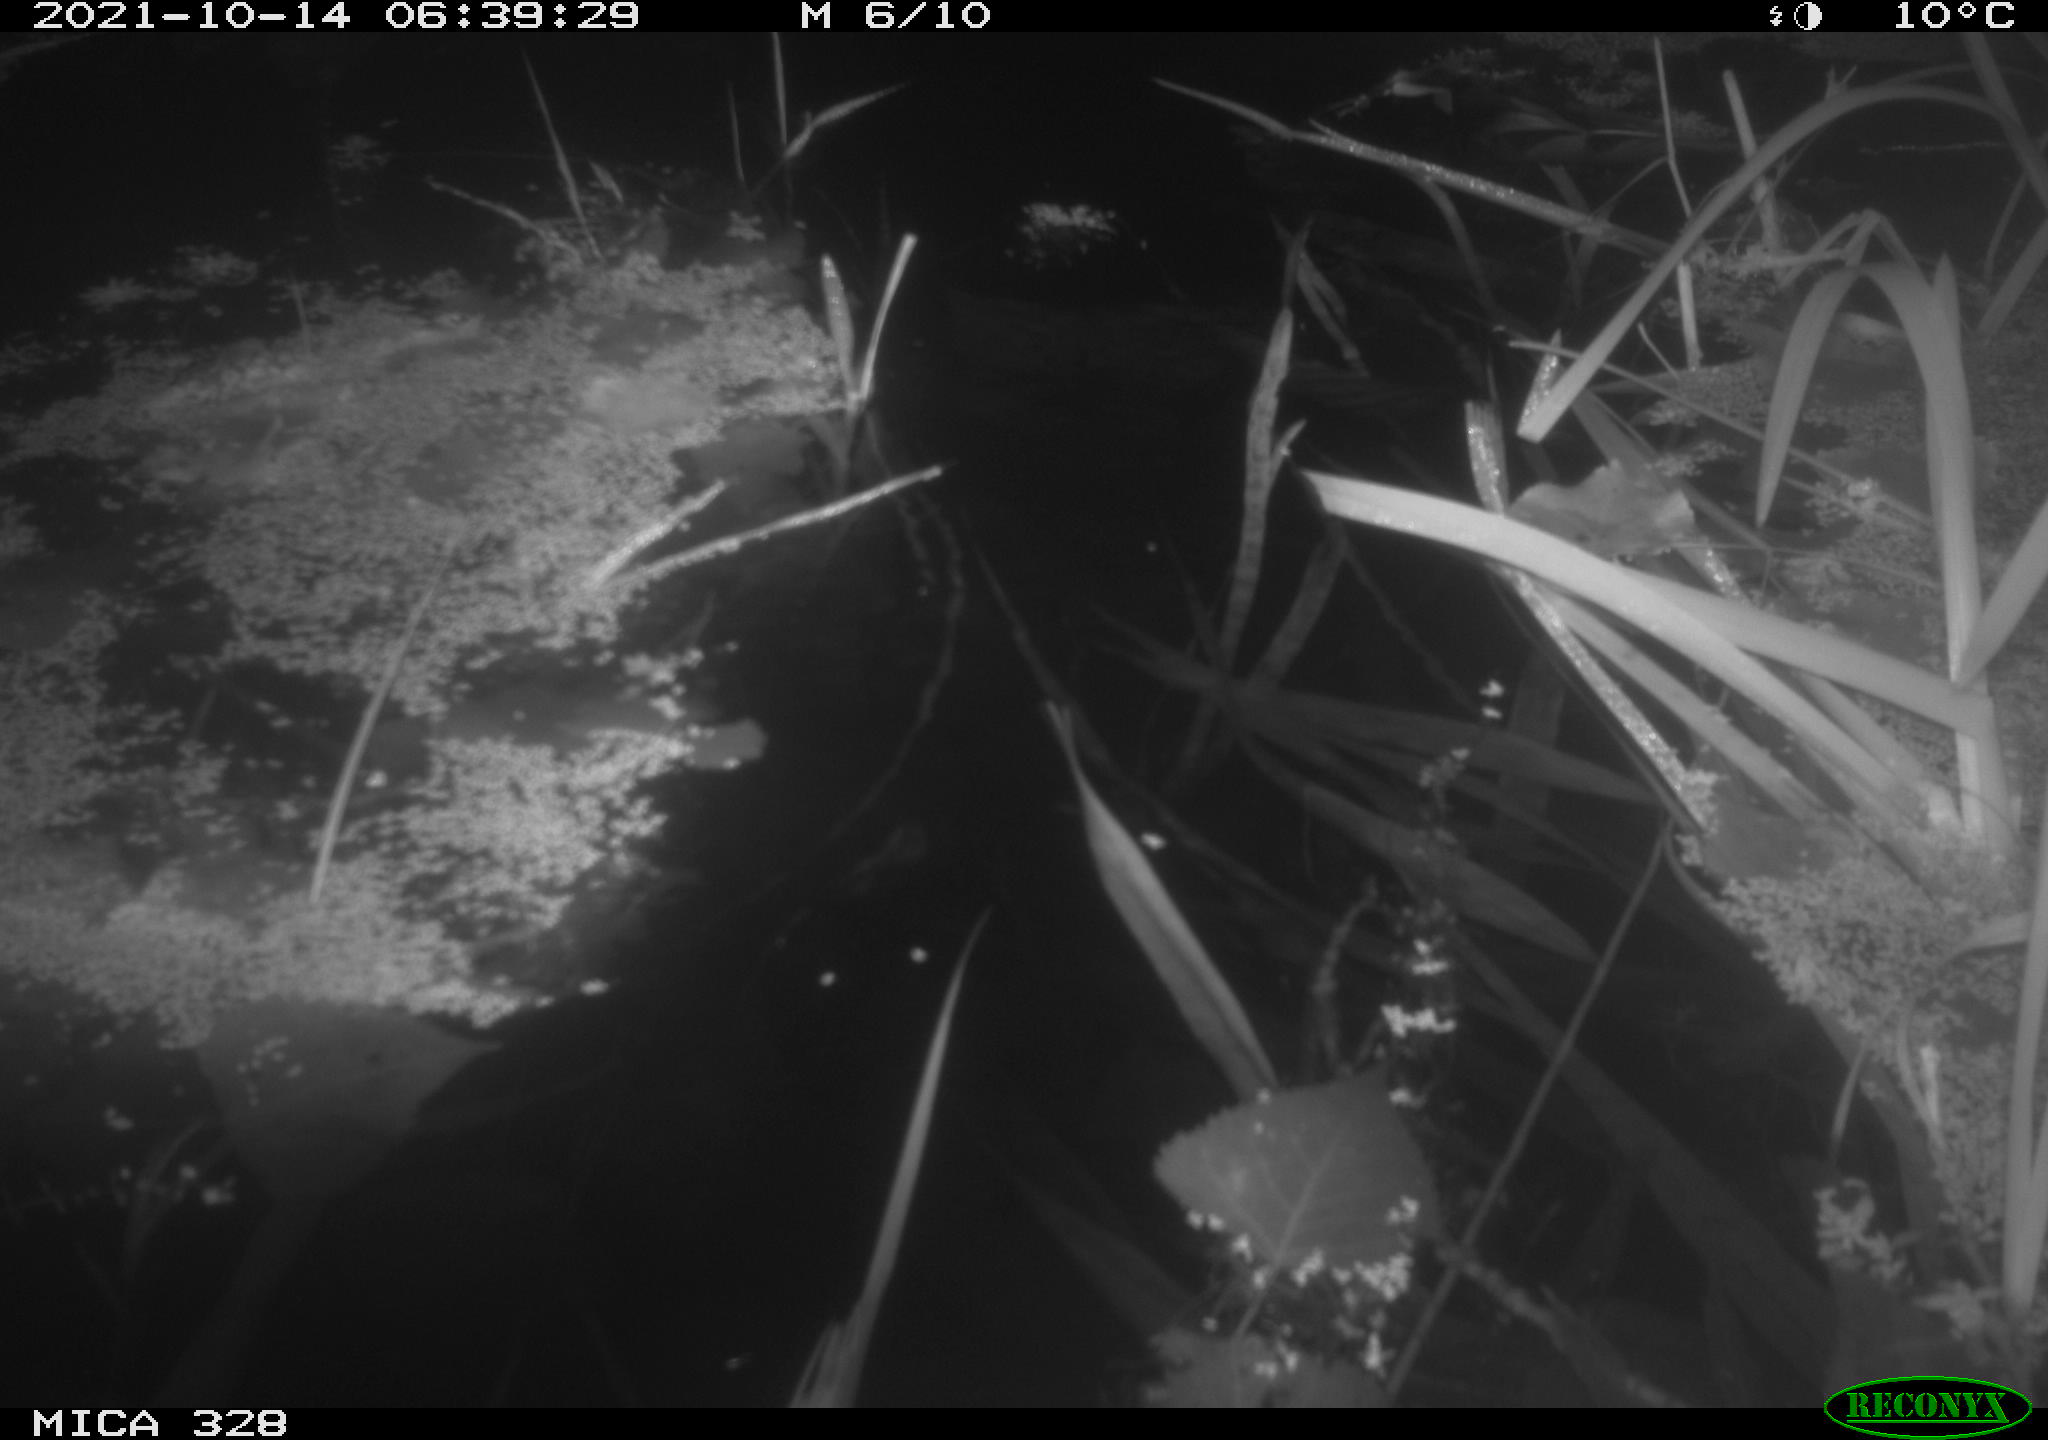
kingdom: Animalia
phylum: Chordata
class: Mammalia
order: Rodentia
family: Cricetidae
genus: Ondatra
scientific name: Ondatra zibethicus
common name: Muskrat
